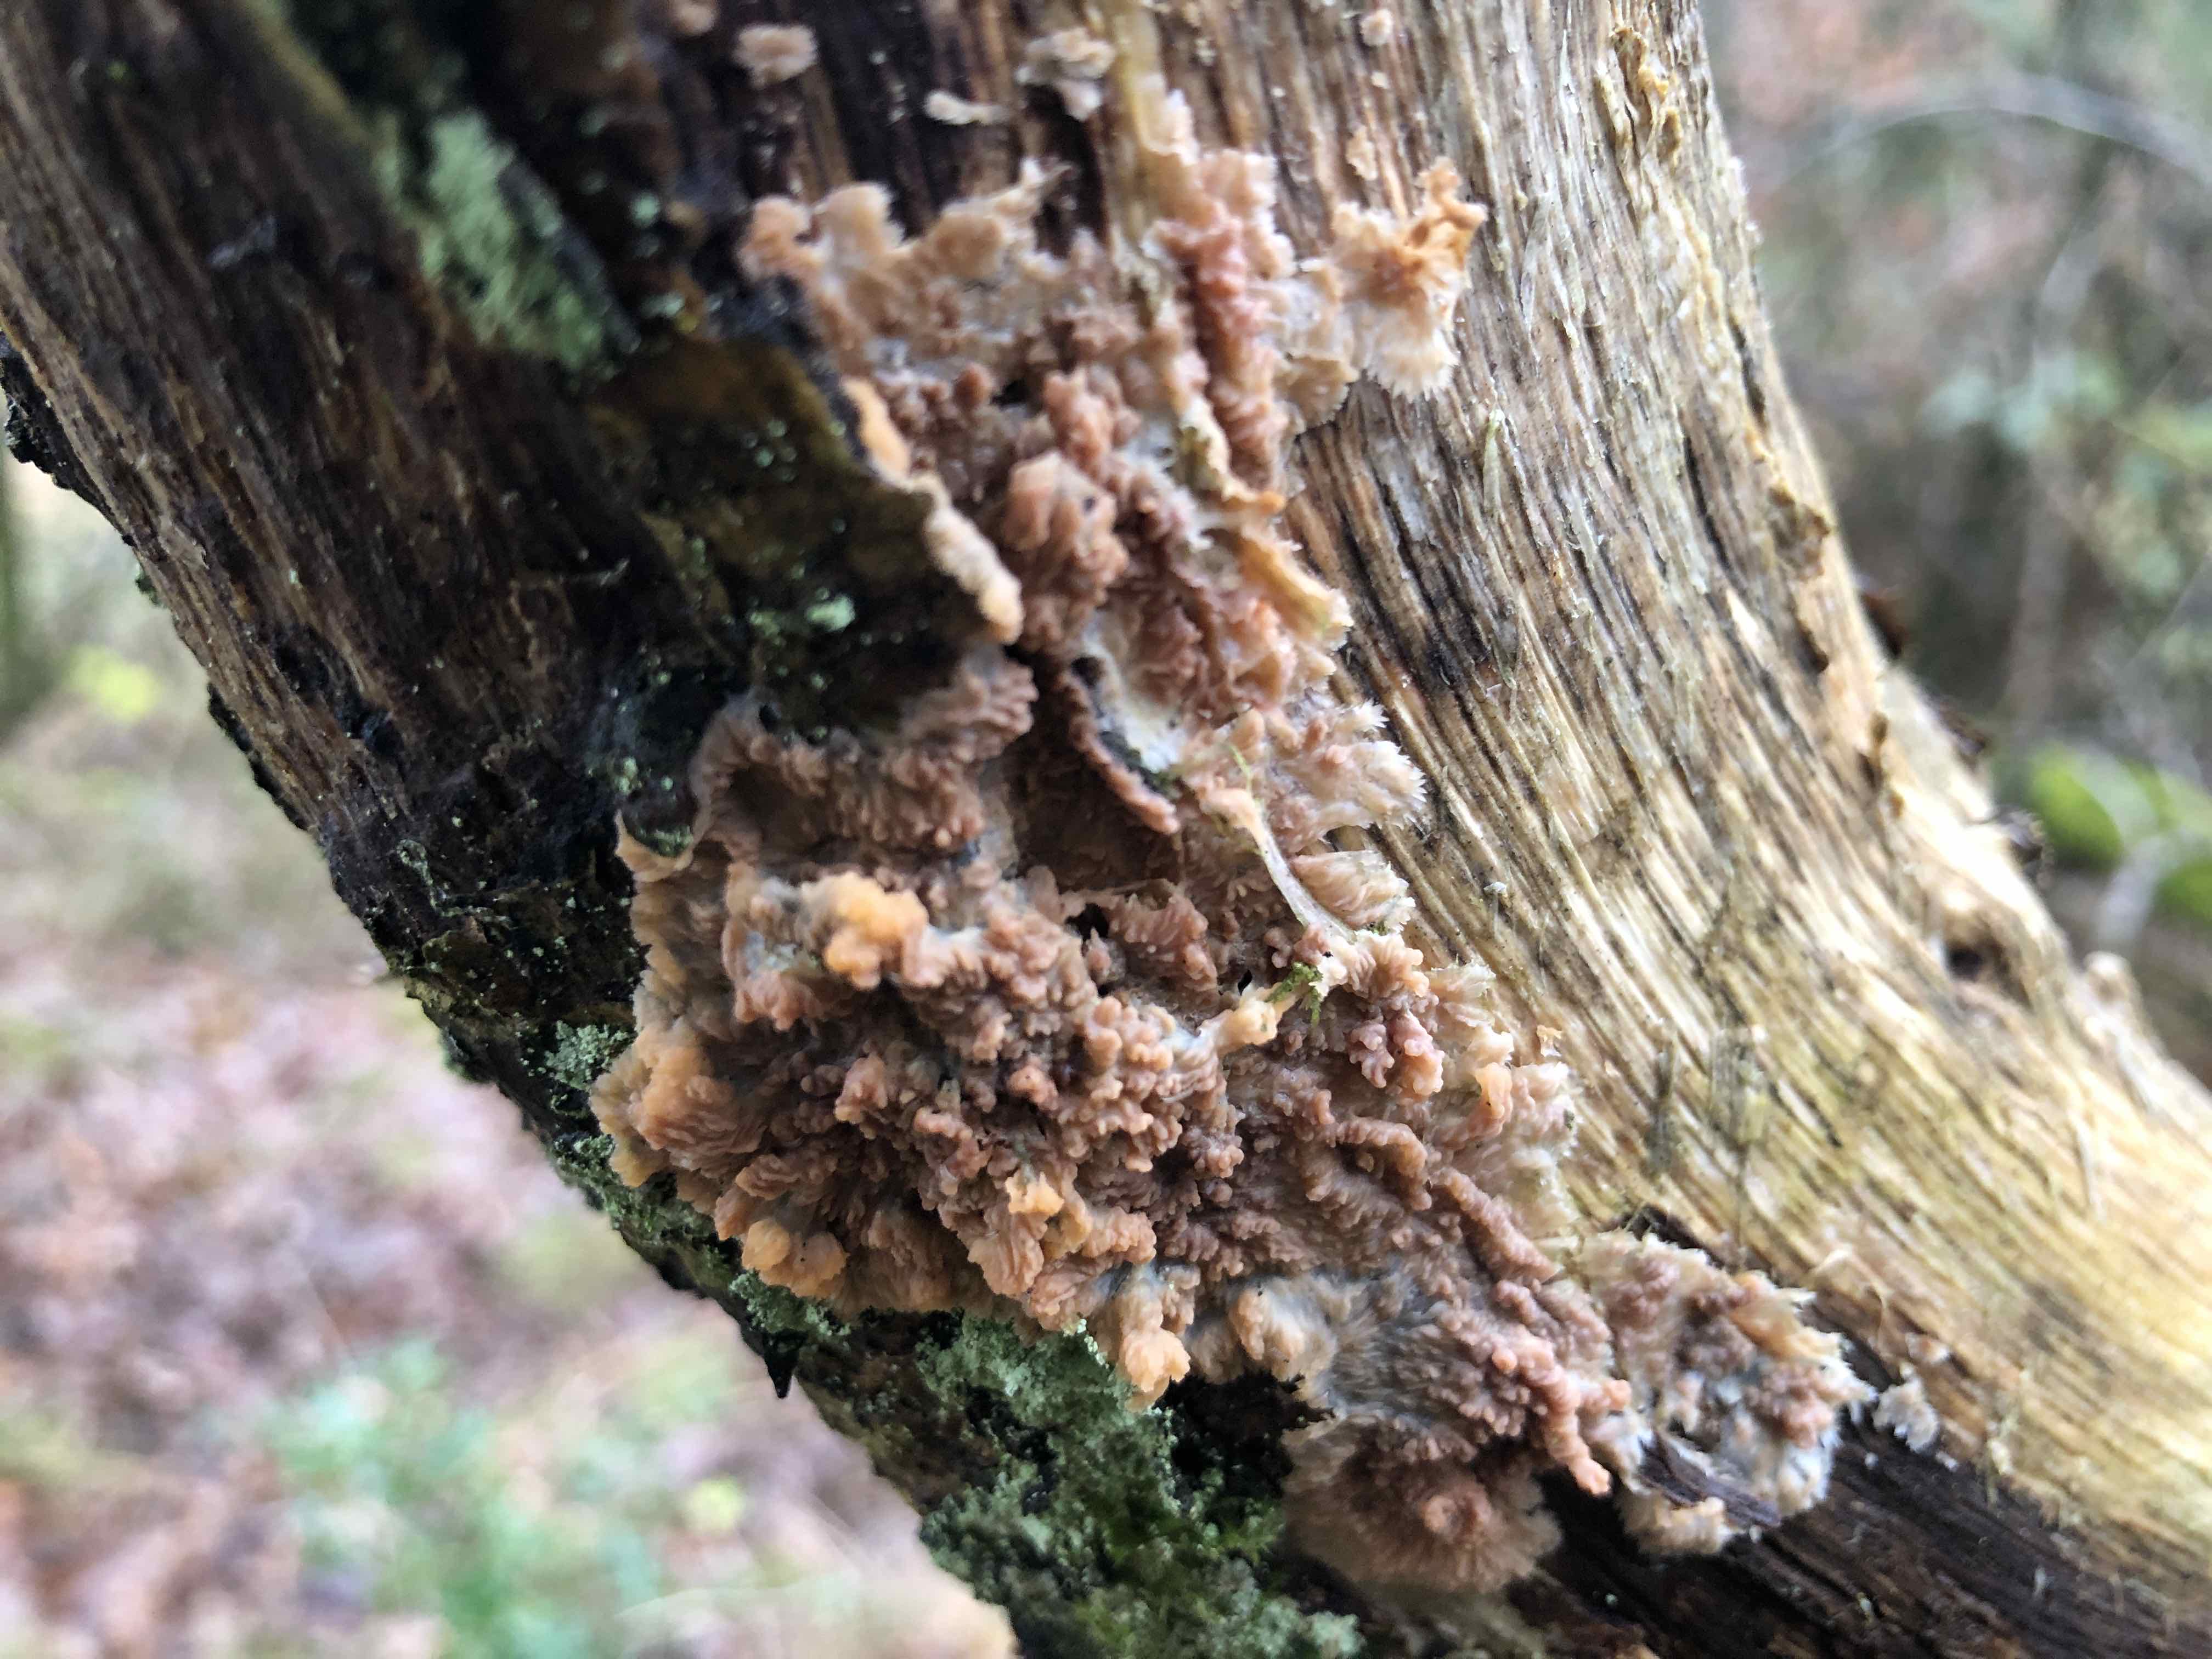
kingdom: Fungi
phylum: Basidiomycota
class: Agaricomycetes
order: Polyporales
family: Meruliaceae
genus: Phlebia
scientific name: Phlebia radiata
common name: stråle-åresvamp
